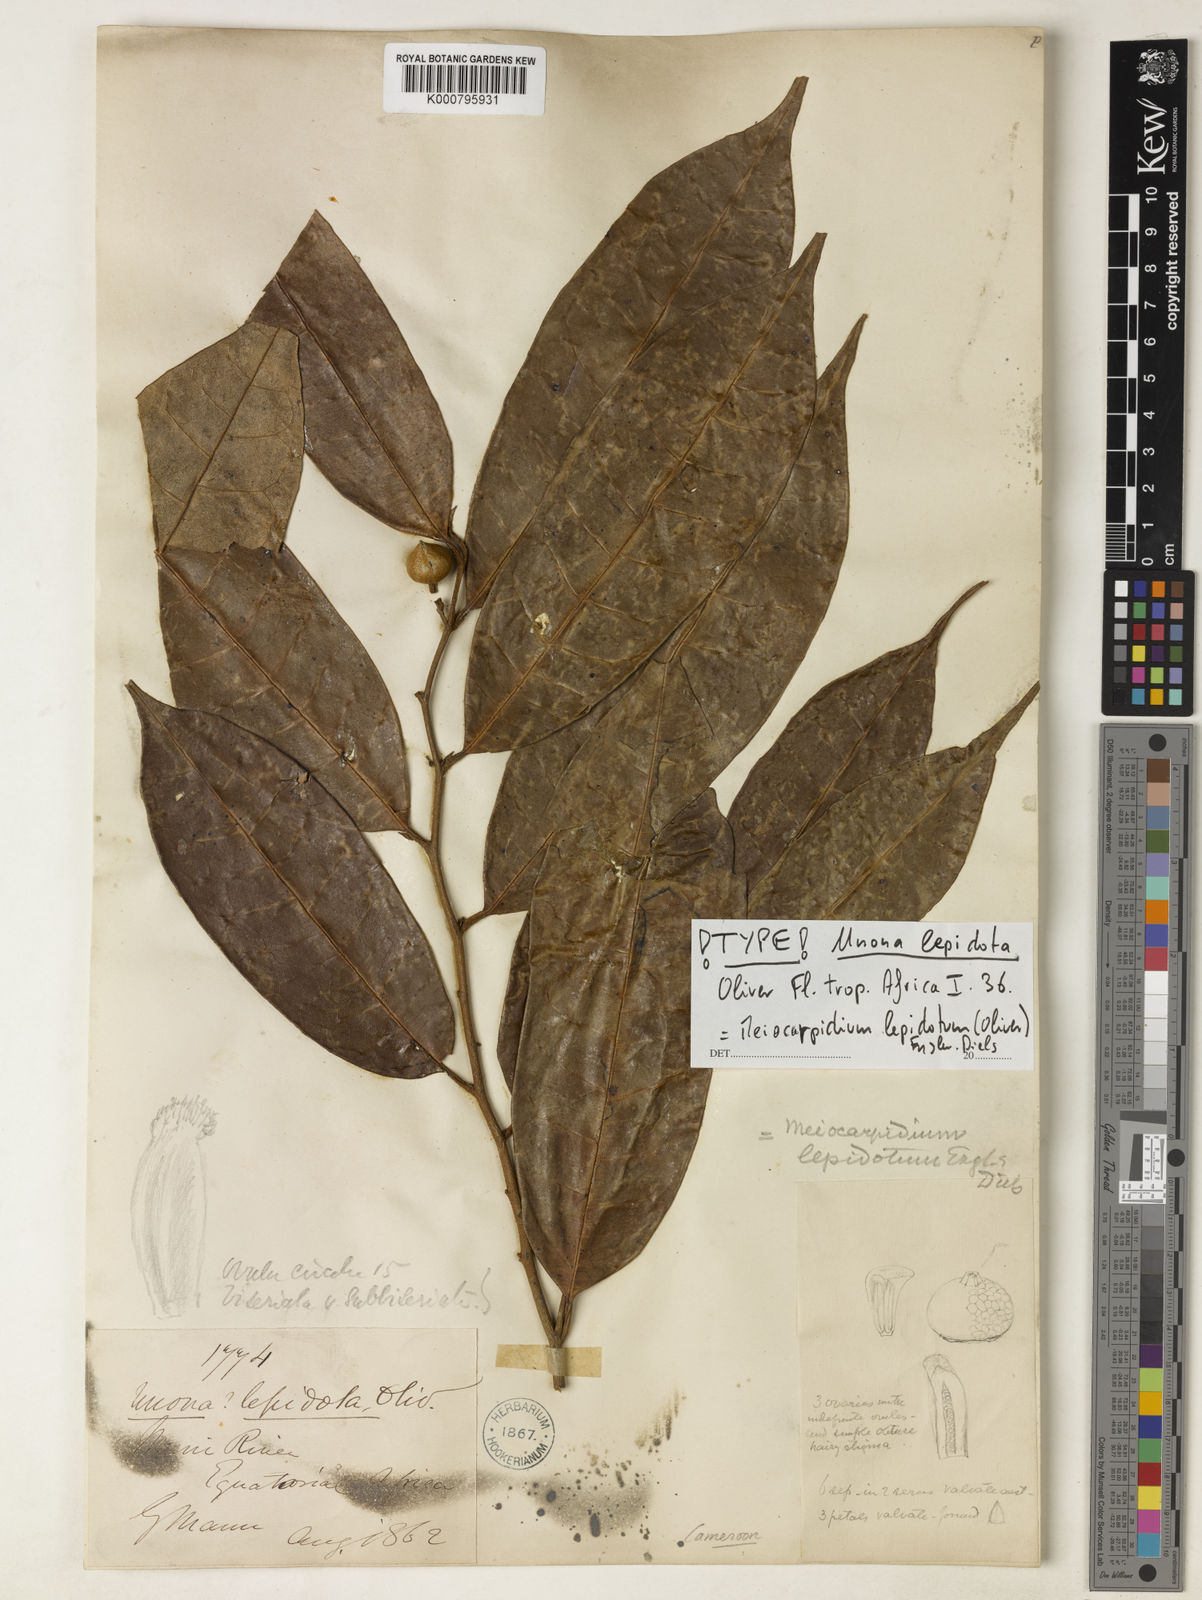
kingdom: Plantae
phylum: Tracheophyta
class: Magnoliopsida
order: Magnoliales
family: Annonaceae
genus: Meiocarpidium
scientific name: Meiocarpidium lepidotum
